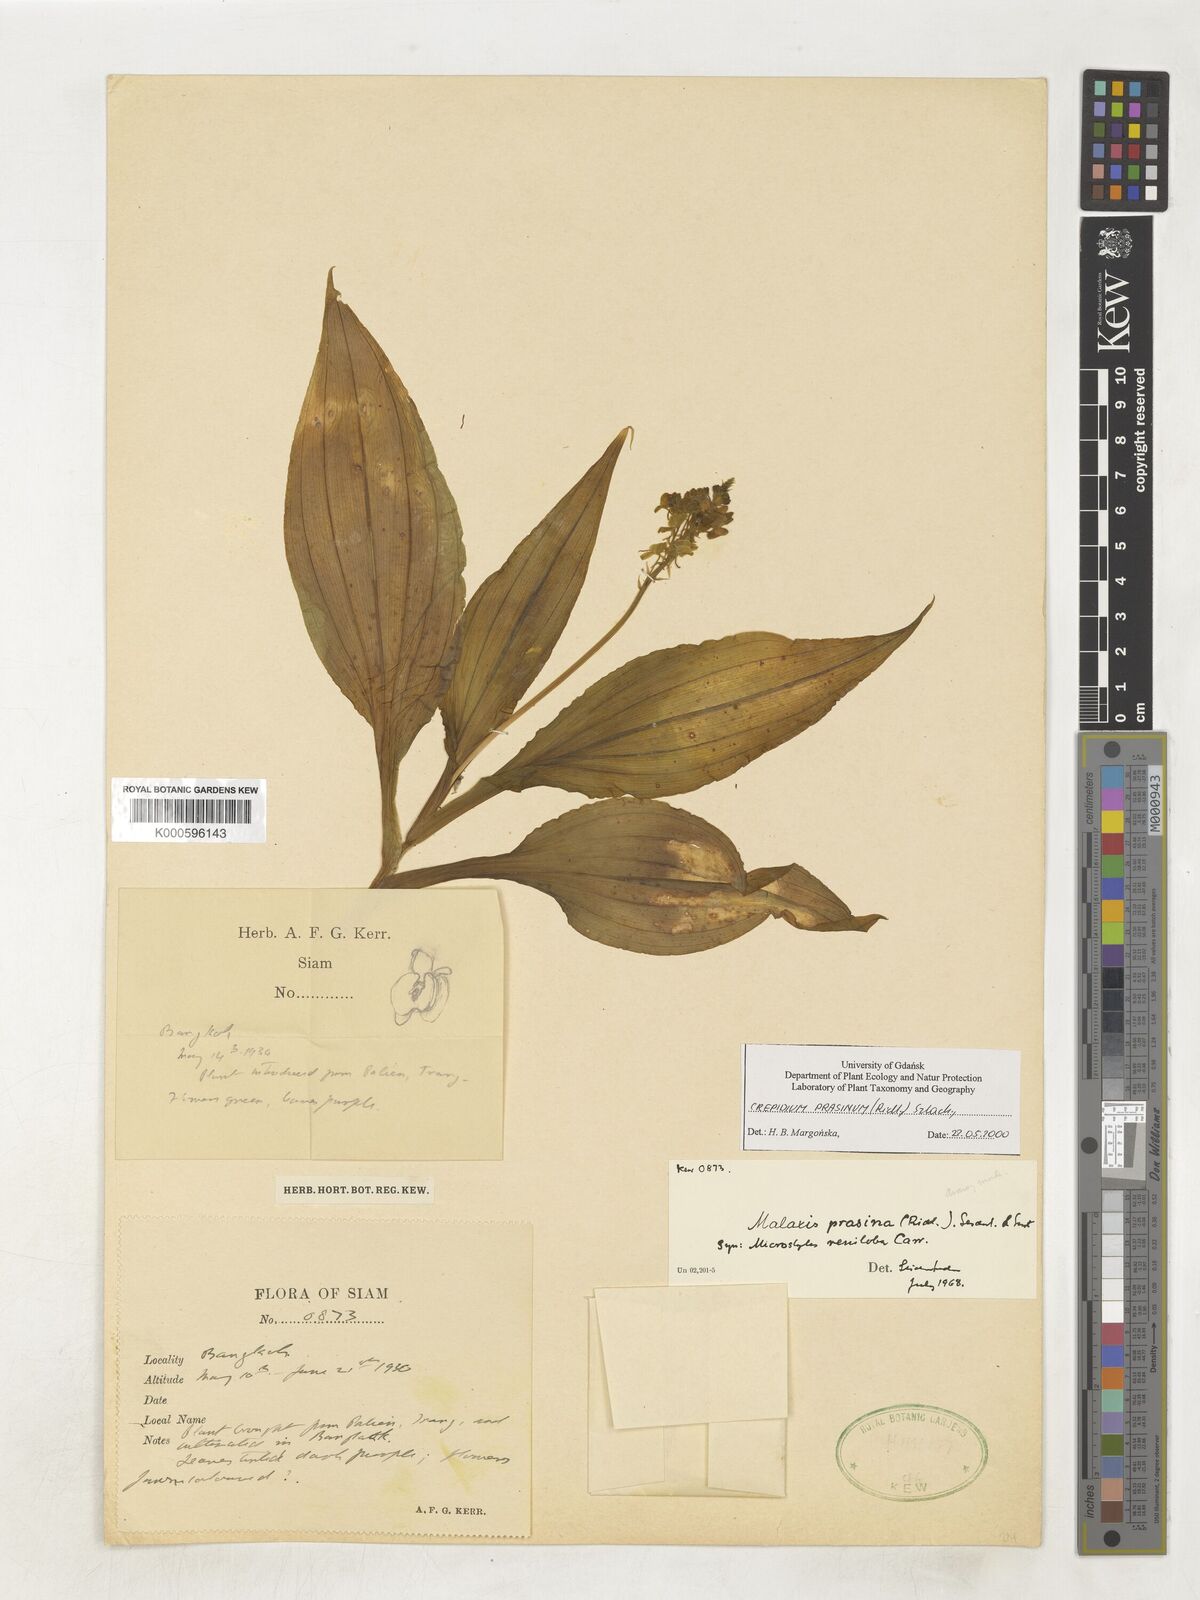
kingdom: Plantae
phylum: Tracheophyta
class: Liliopsida
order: Asparagales
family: Orchidaceae
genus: Crepidium
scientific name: Crepidium prasinum
